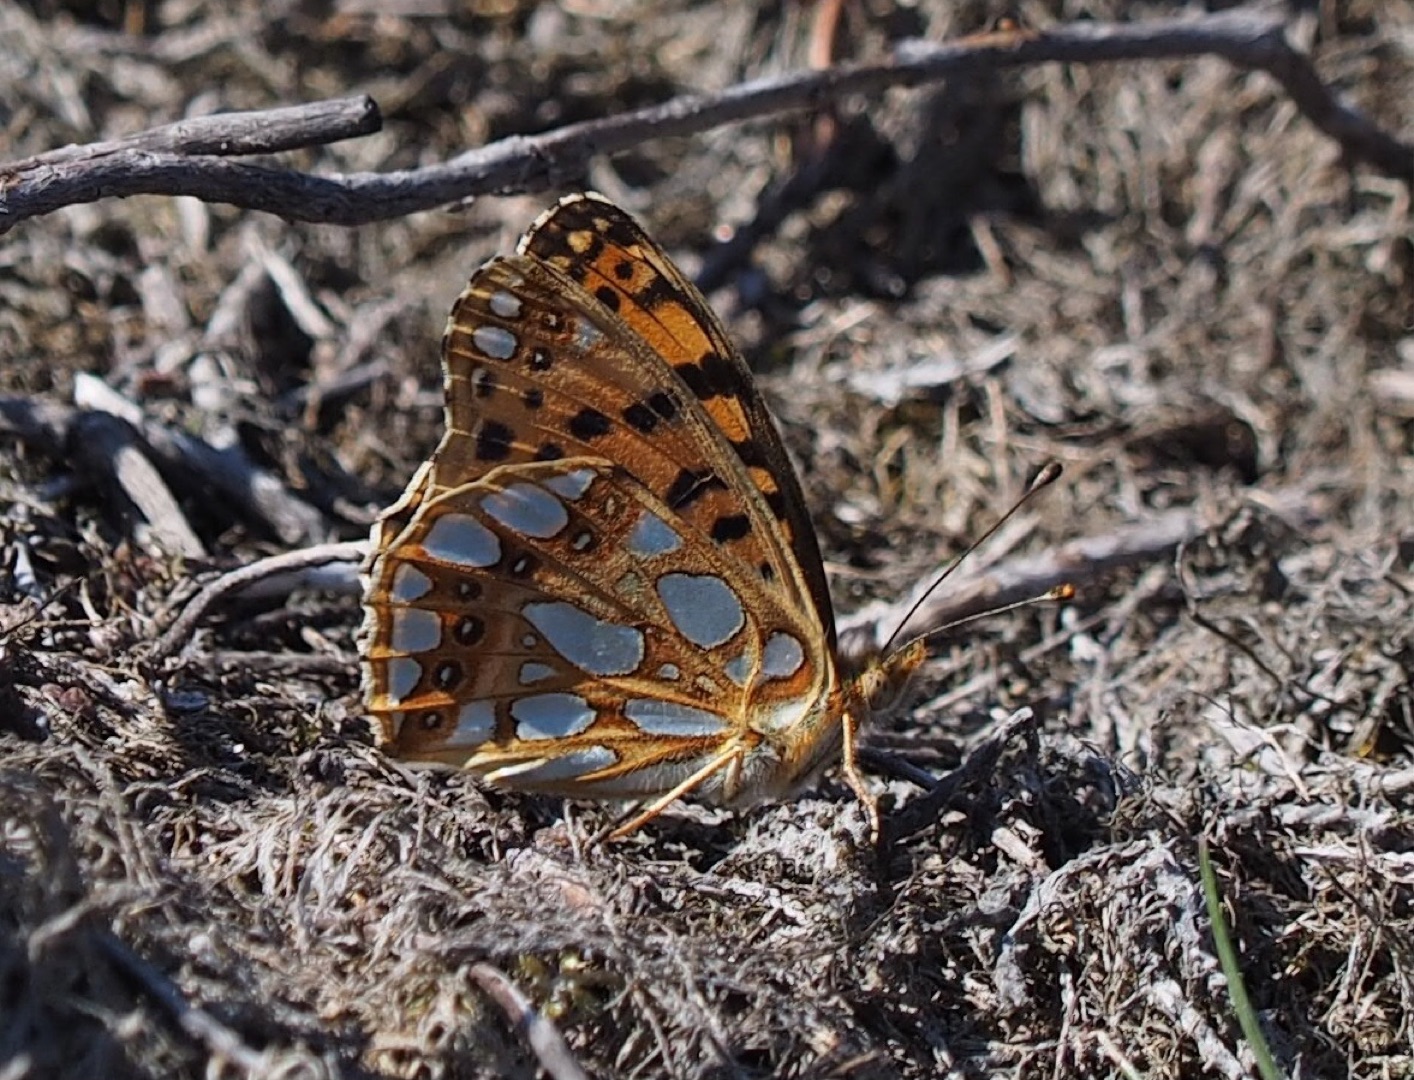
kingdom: Animalia
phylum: Arthropoda
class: Insecta
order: Lepidoptera
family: Nymphalidae
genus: Issoria
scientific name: Issoria lathonia
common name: Storplettet perlemorsommerfugl
